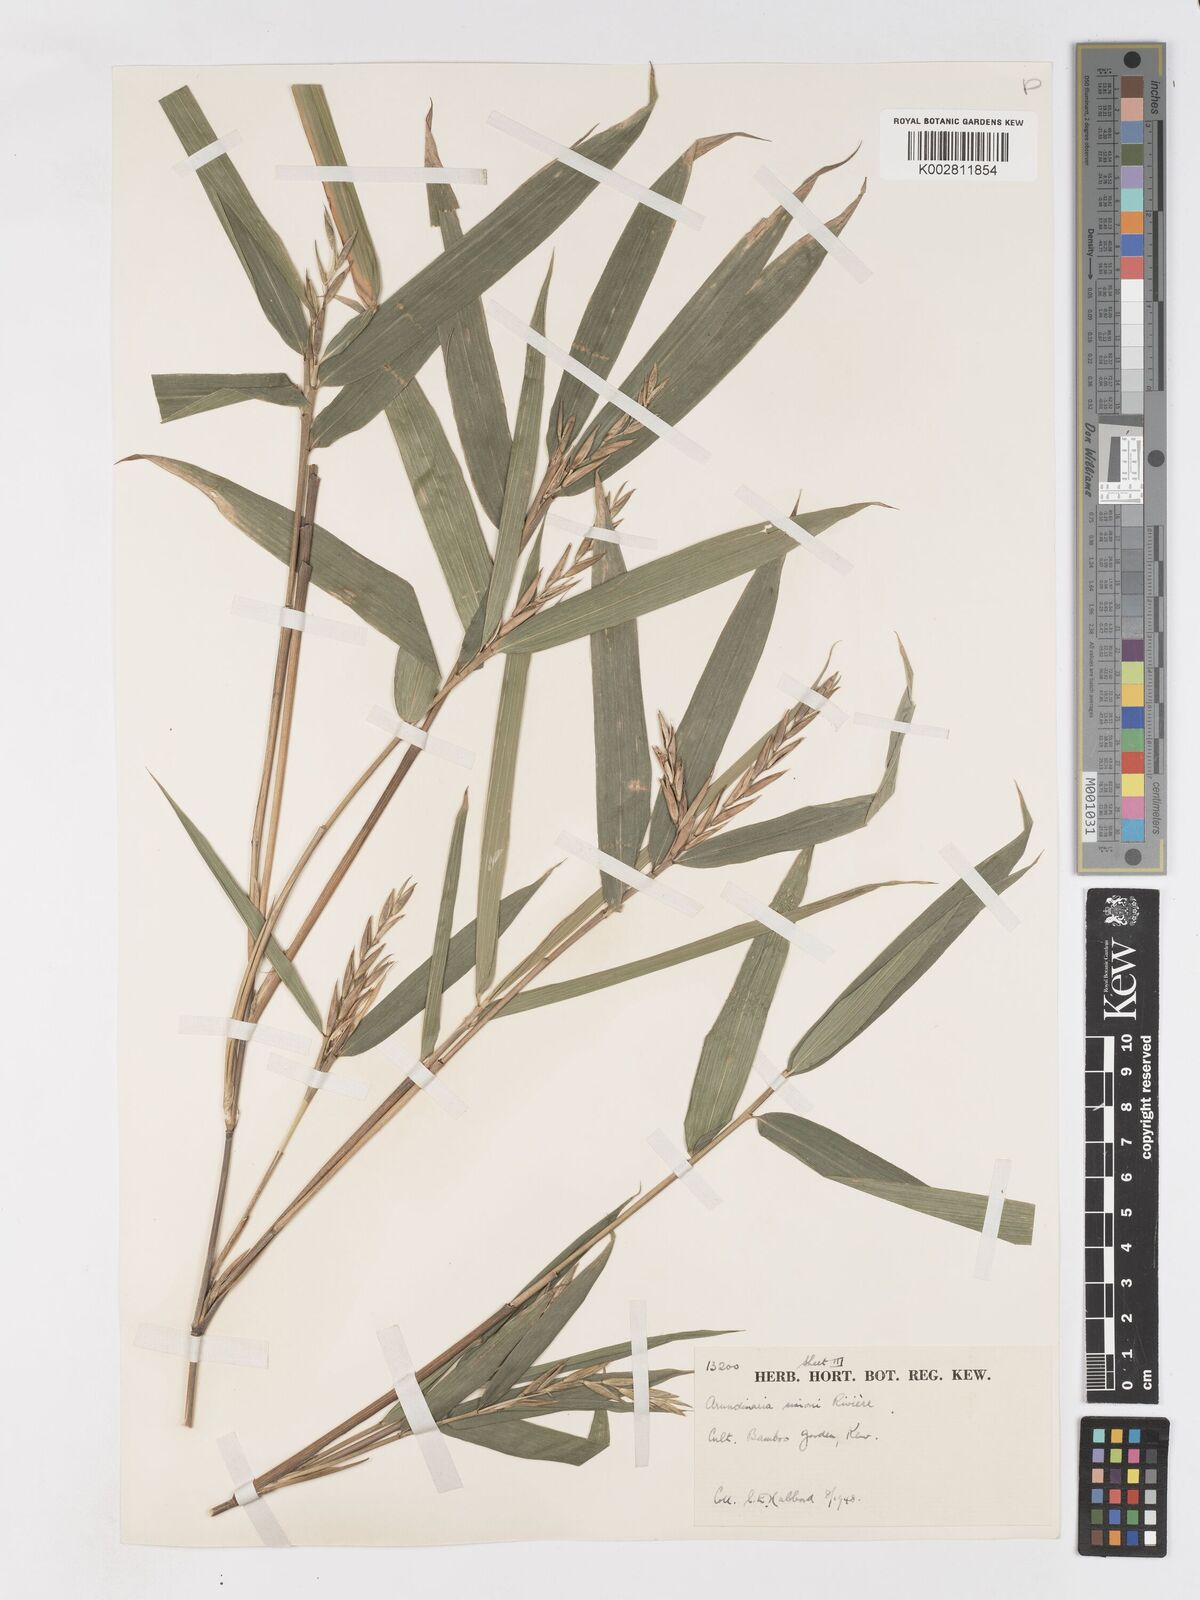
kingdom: Plantae
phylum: Tracheophyta
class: Liliopsida
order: Poales
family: Poaceae
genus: Pleioblastus
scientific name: Pleioblastus simonii
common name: Simon bamboo
